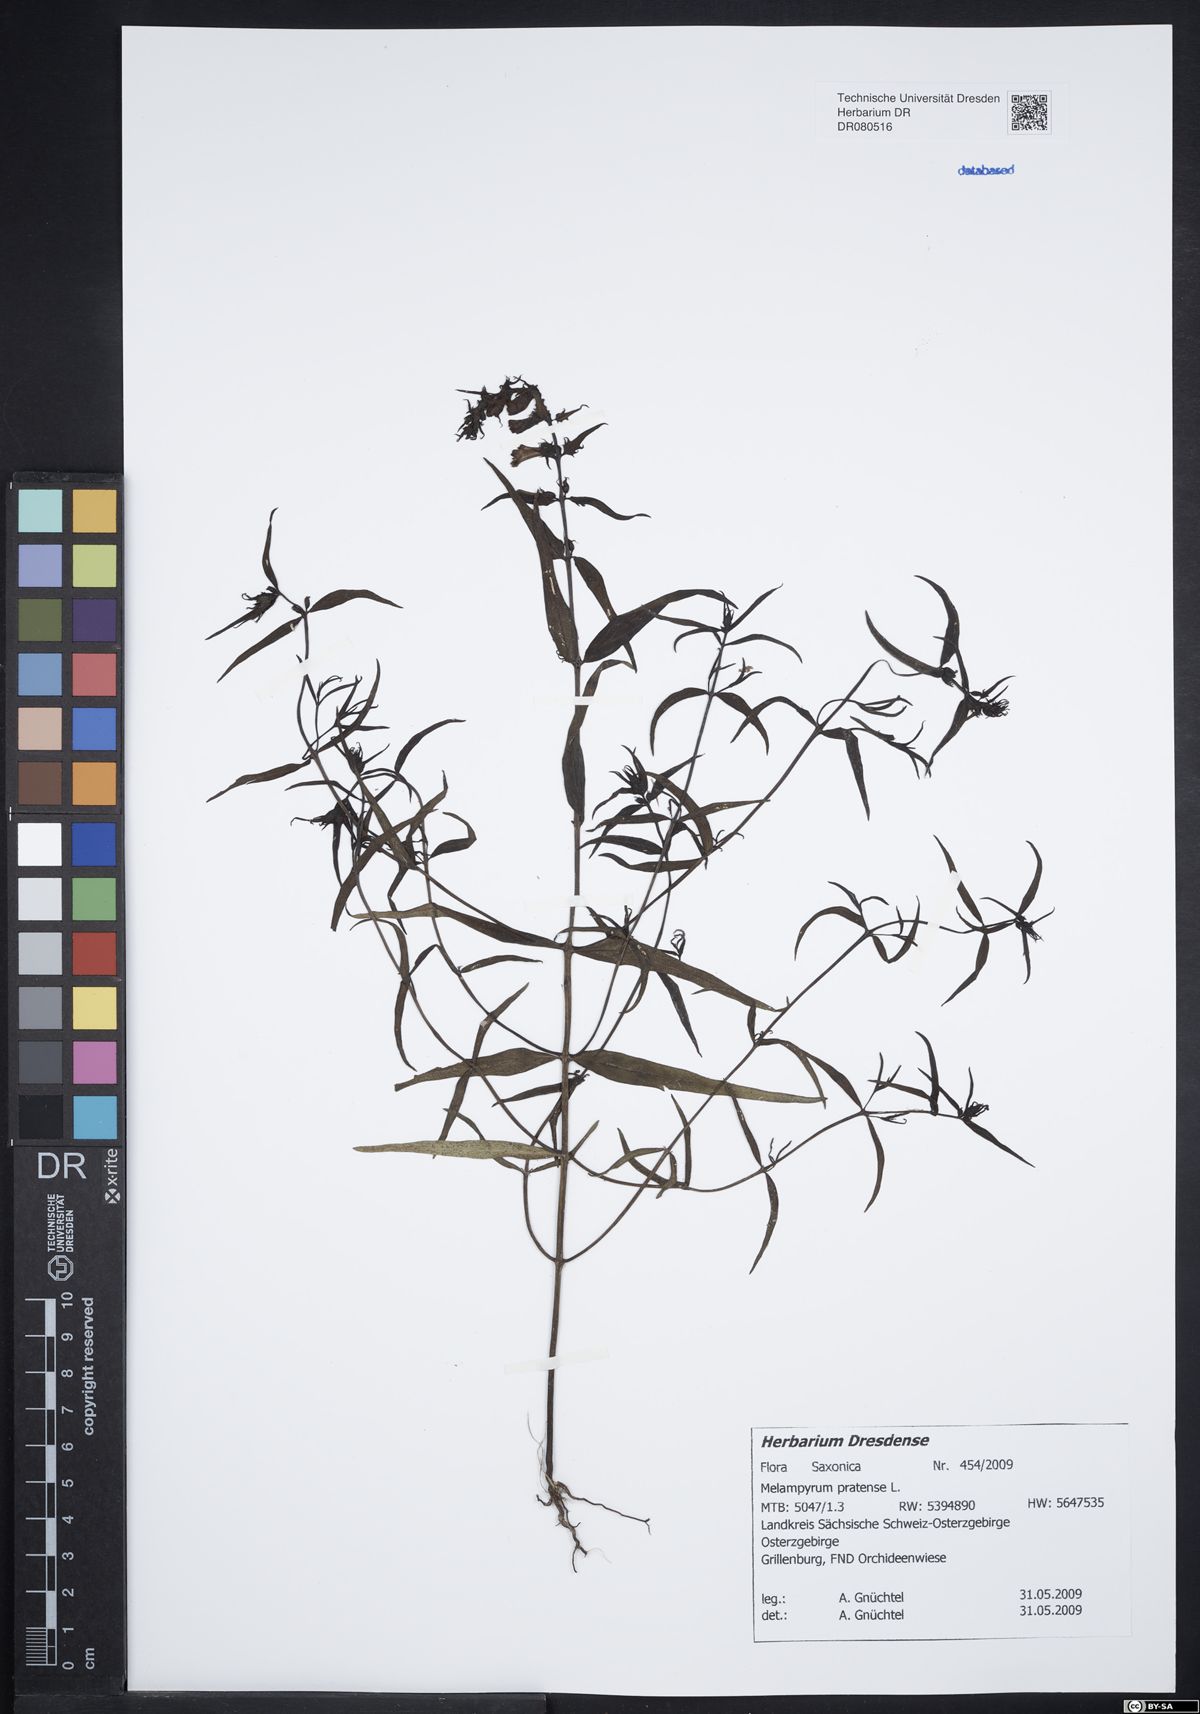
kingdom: Plantae
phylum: Tracheophyta
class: Magnoliopsida
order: Lamiales
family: Orobanchaceae
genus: Melampyrum
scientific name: Melampyrum pratense
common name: Common cow-wheat
